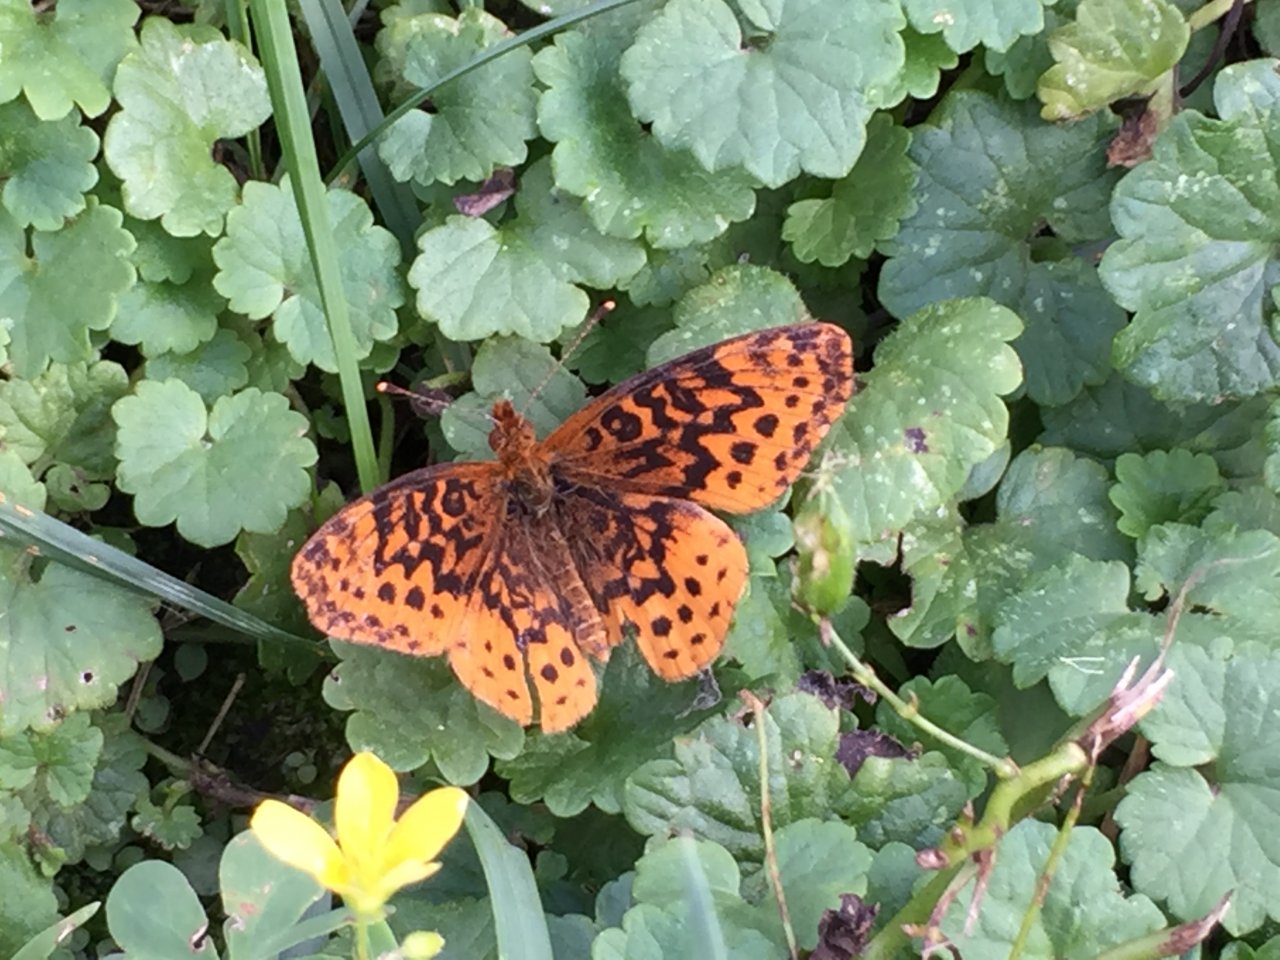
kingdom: Animalia
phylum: Arthropoda
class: Insecta
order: Lepidoptera
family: Nymphalidae
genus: Clossiana
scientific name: Clossiana toddi
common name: Meadow Fritillary
